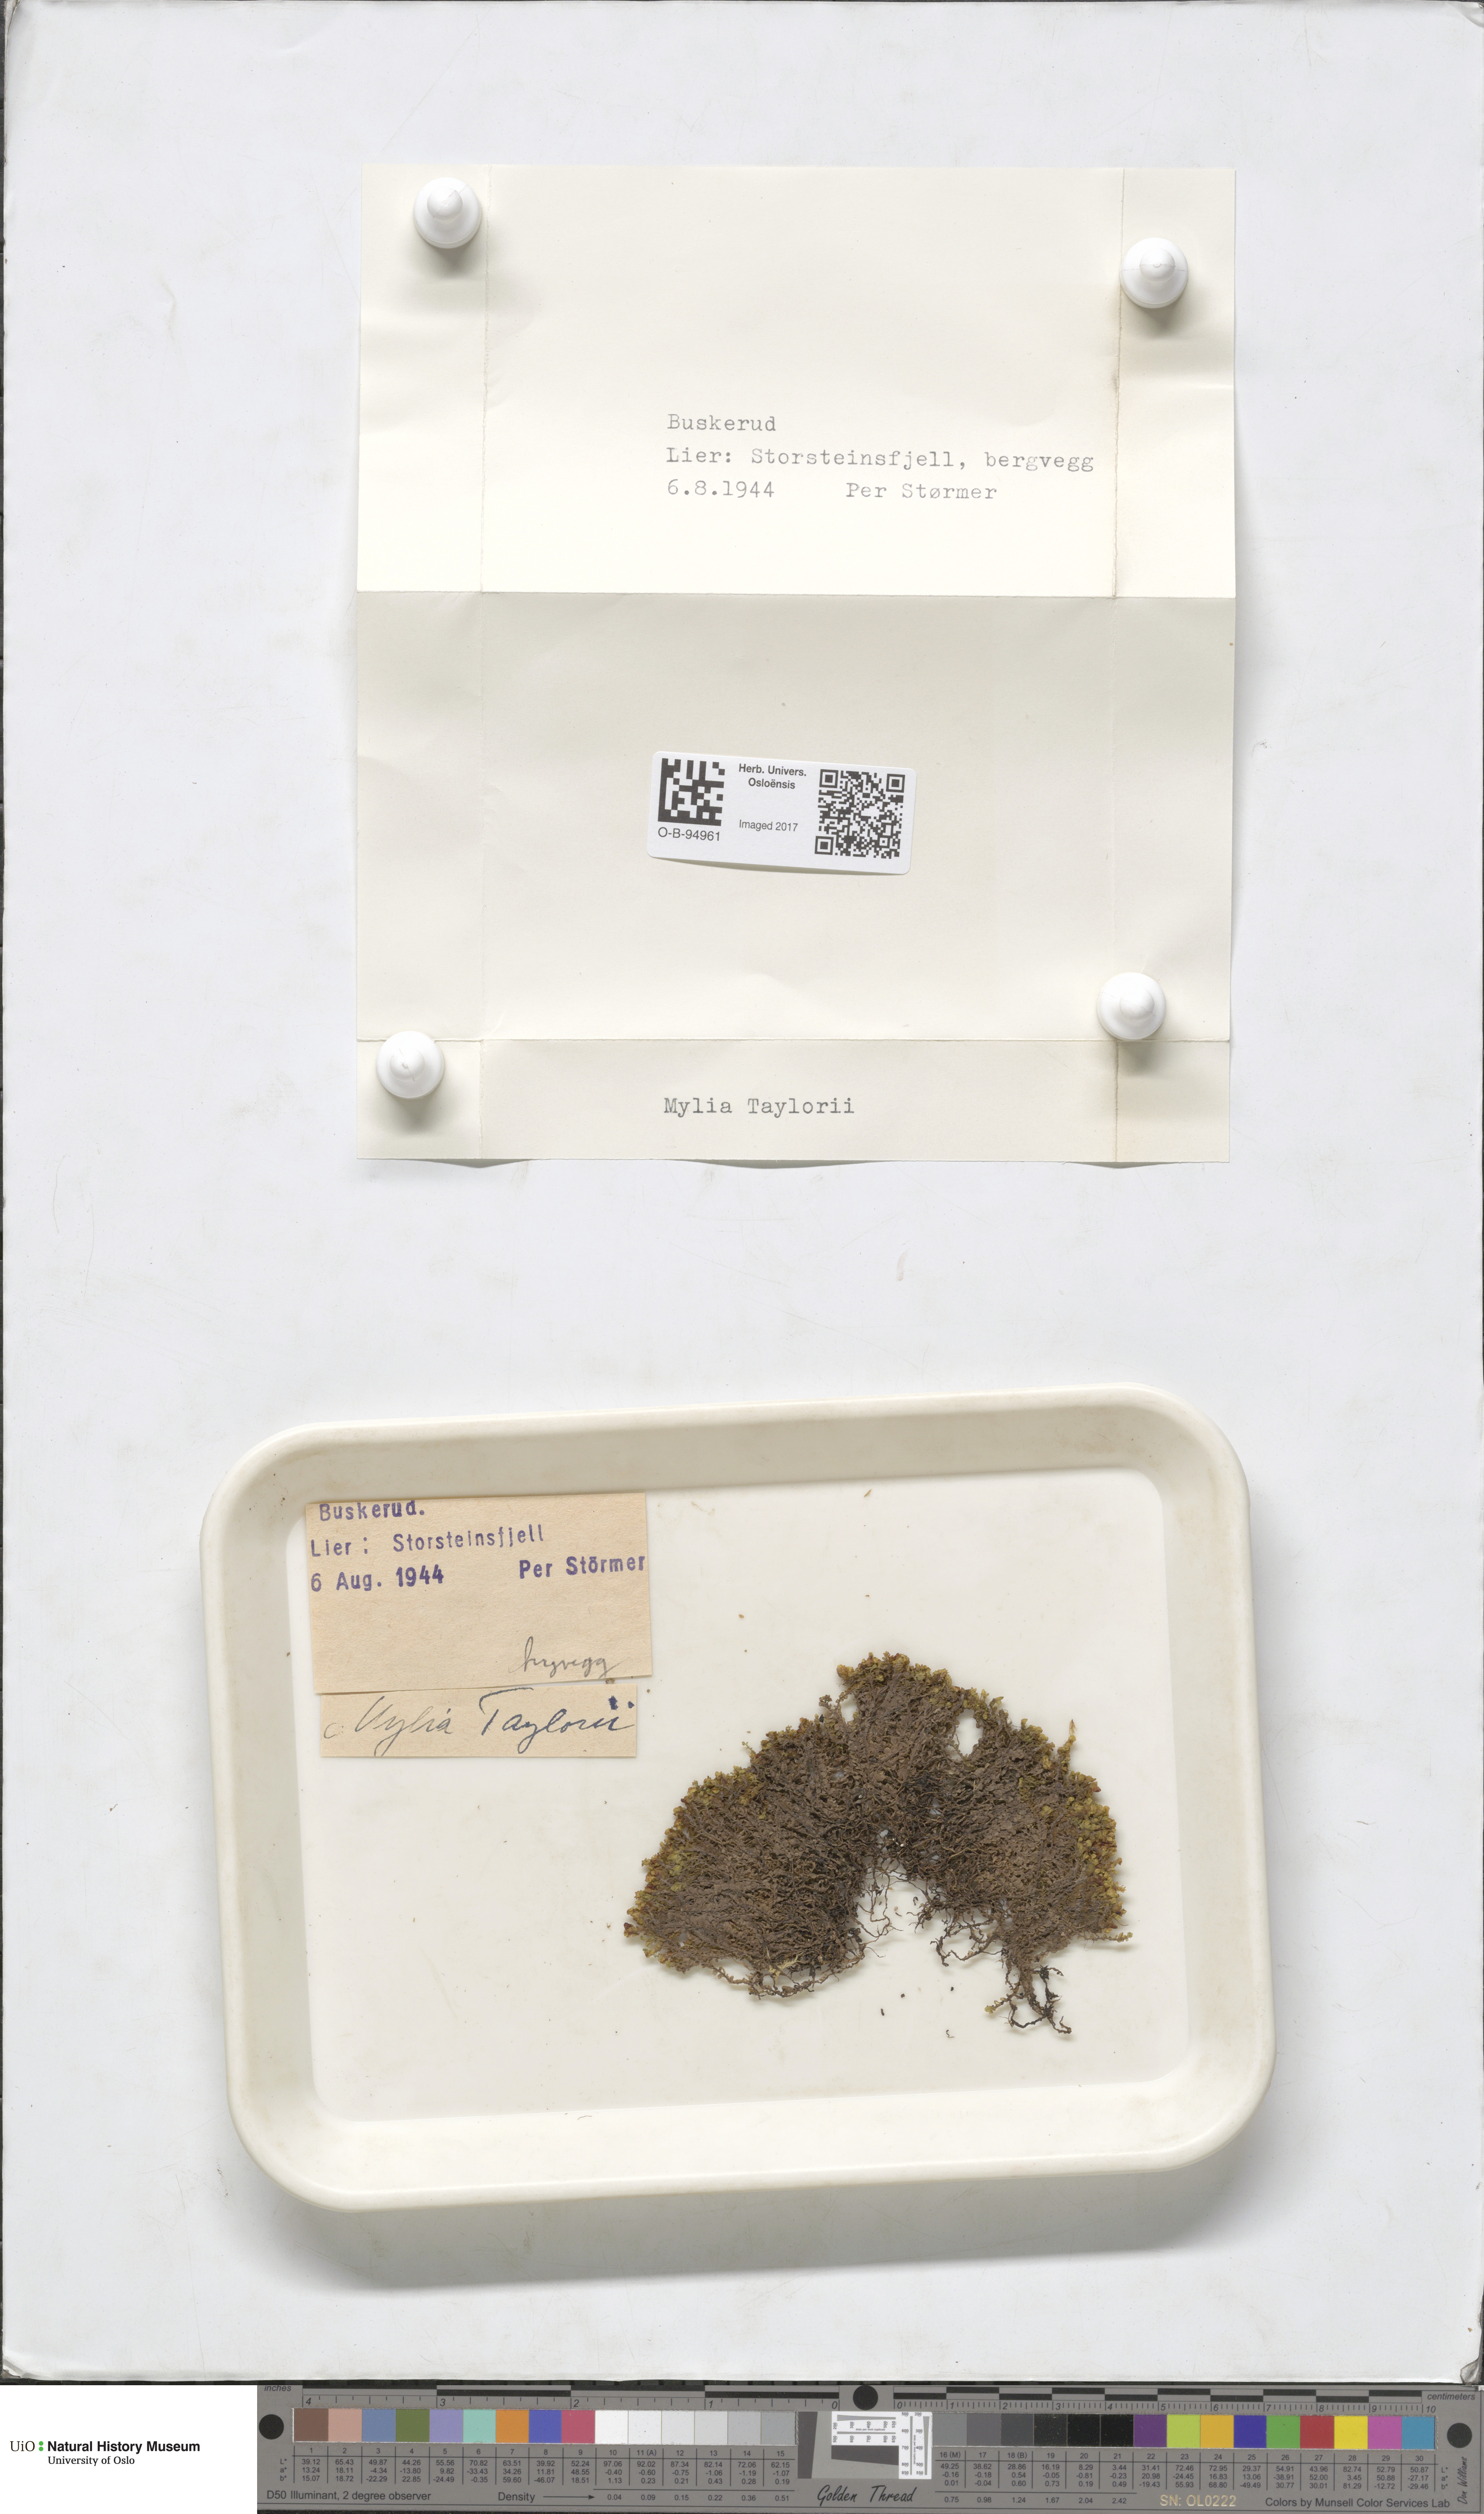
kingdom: Plantae
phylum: Marchantiophyta
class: Jungermanniopsida
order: Jungermanniales
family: Myliaceae
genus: Mylia
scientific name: Mylia taylorii
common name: Taylor s flapwort
